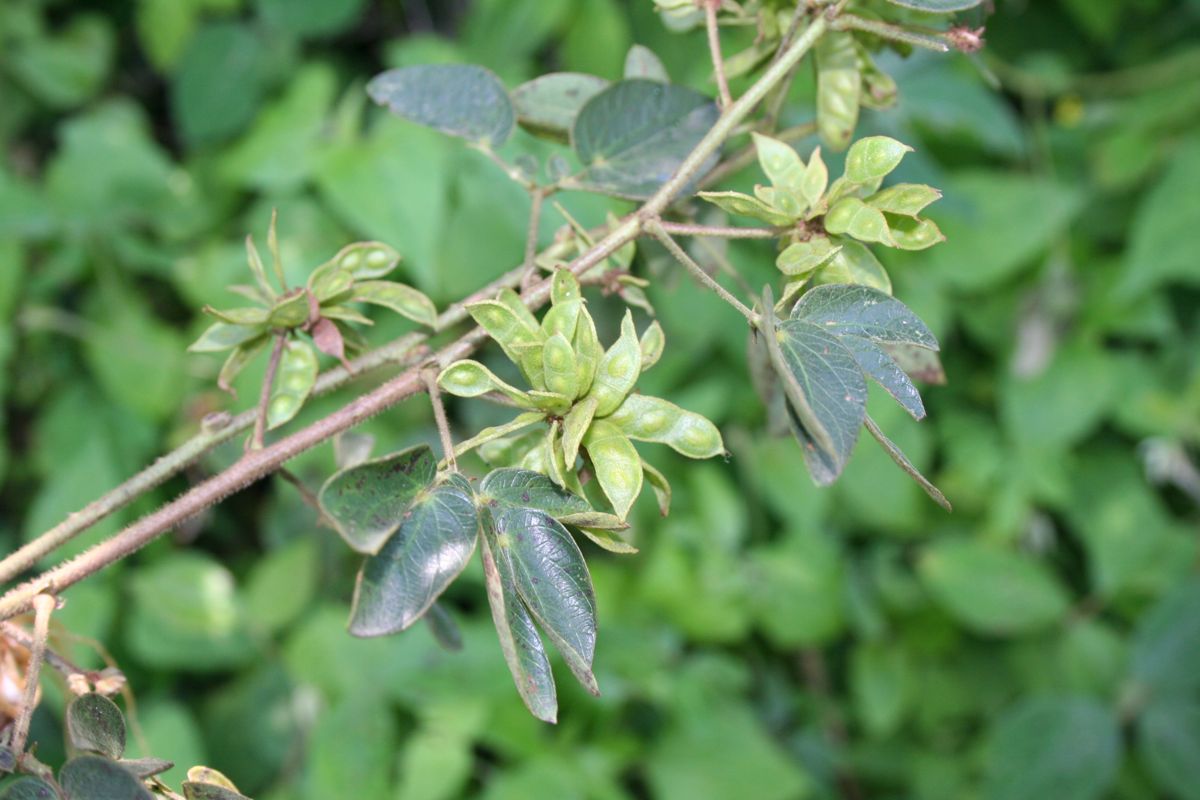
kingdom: Plantae
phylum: Tracheophyta
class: Magnoliopsida
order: Fabales
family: Fabaceae
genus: Mimosa
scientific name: Mimosa albida
